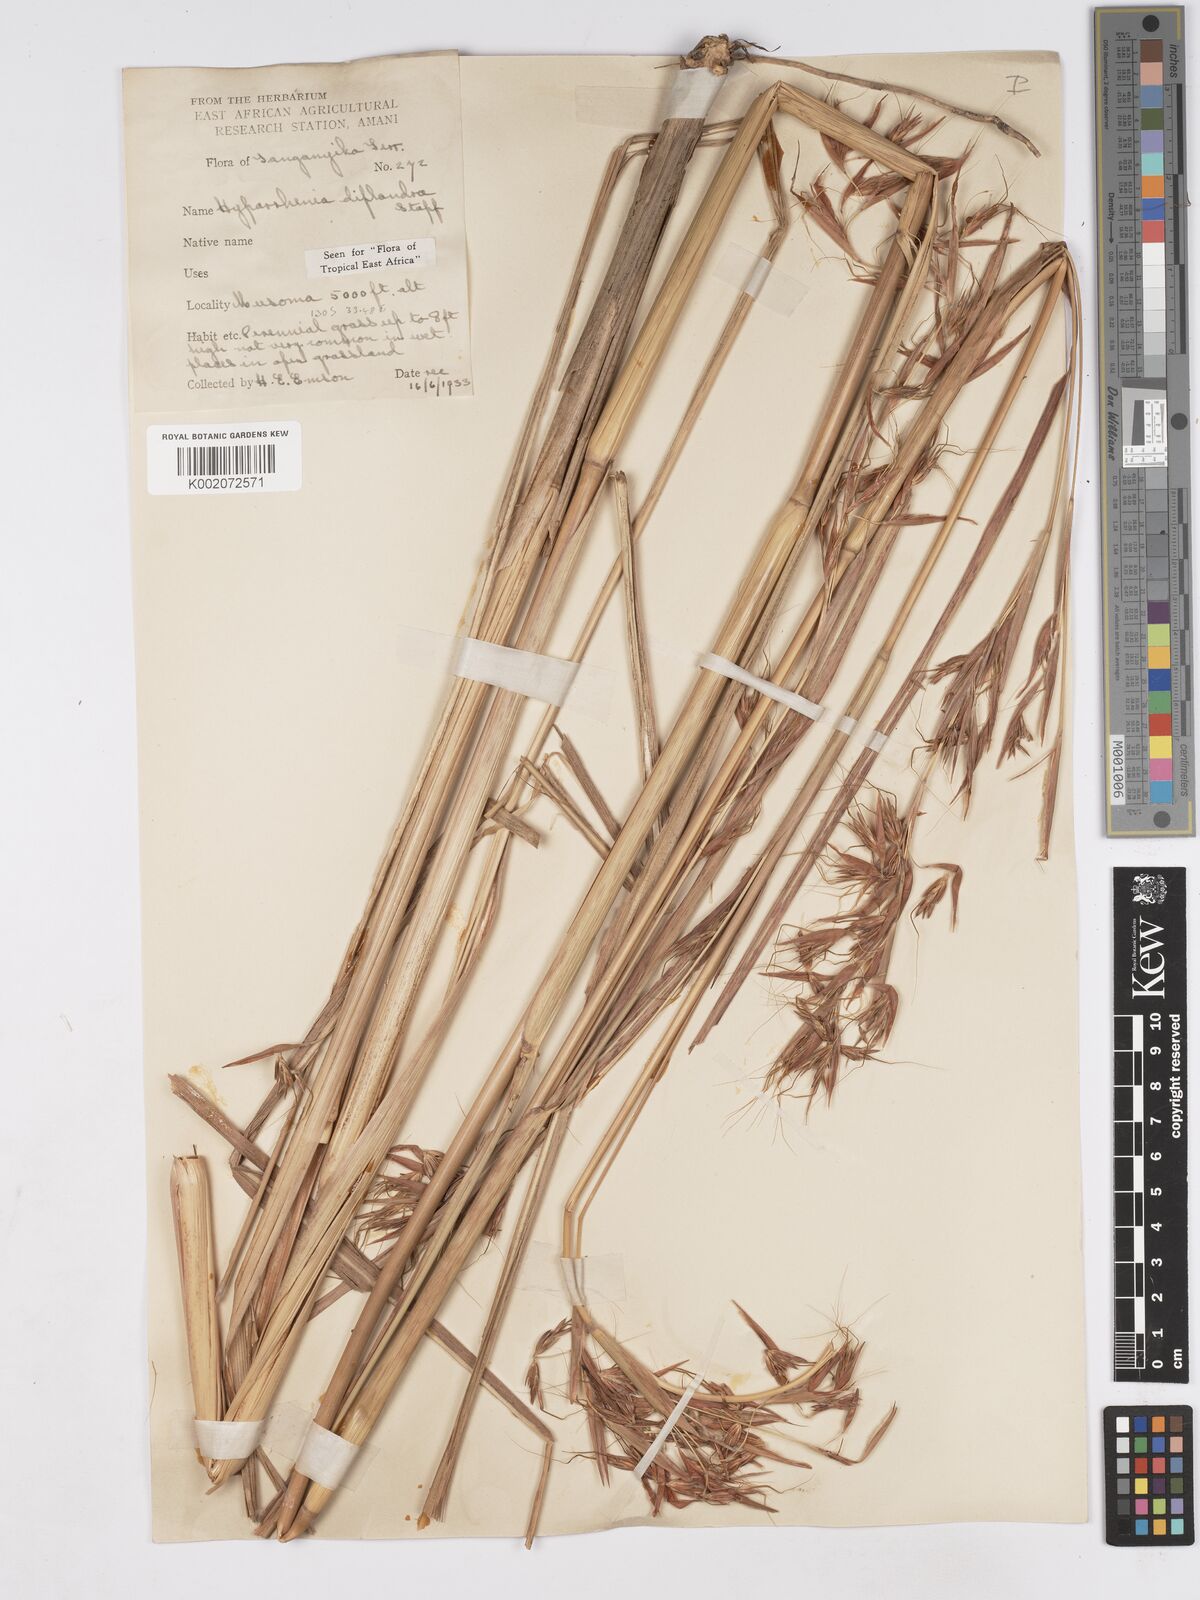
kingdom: Plantae
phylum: Tracheophyta
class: Liliopsida
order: Poales
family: Poaceae
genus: Hyparrhenia
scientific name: Hyparrhenia diplandra
